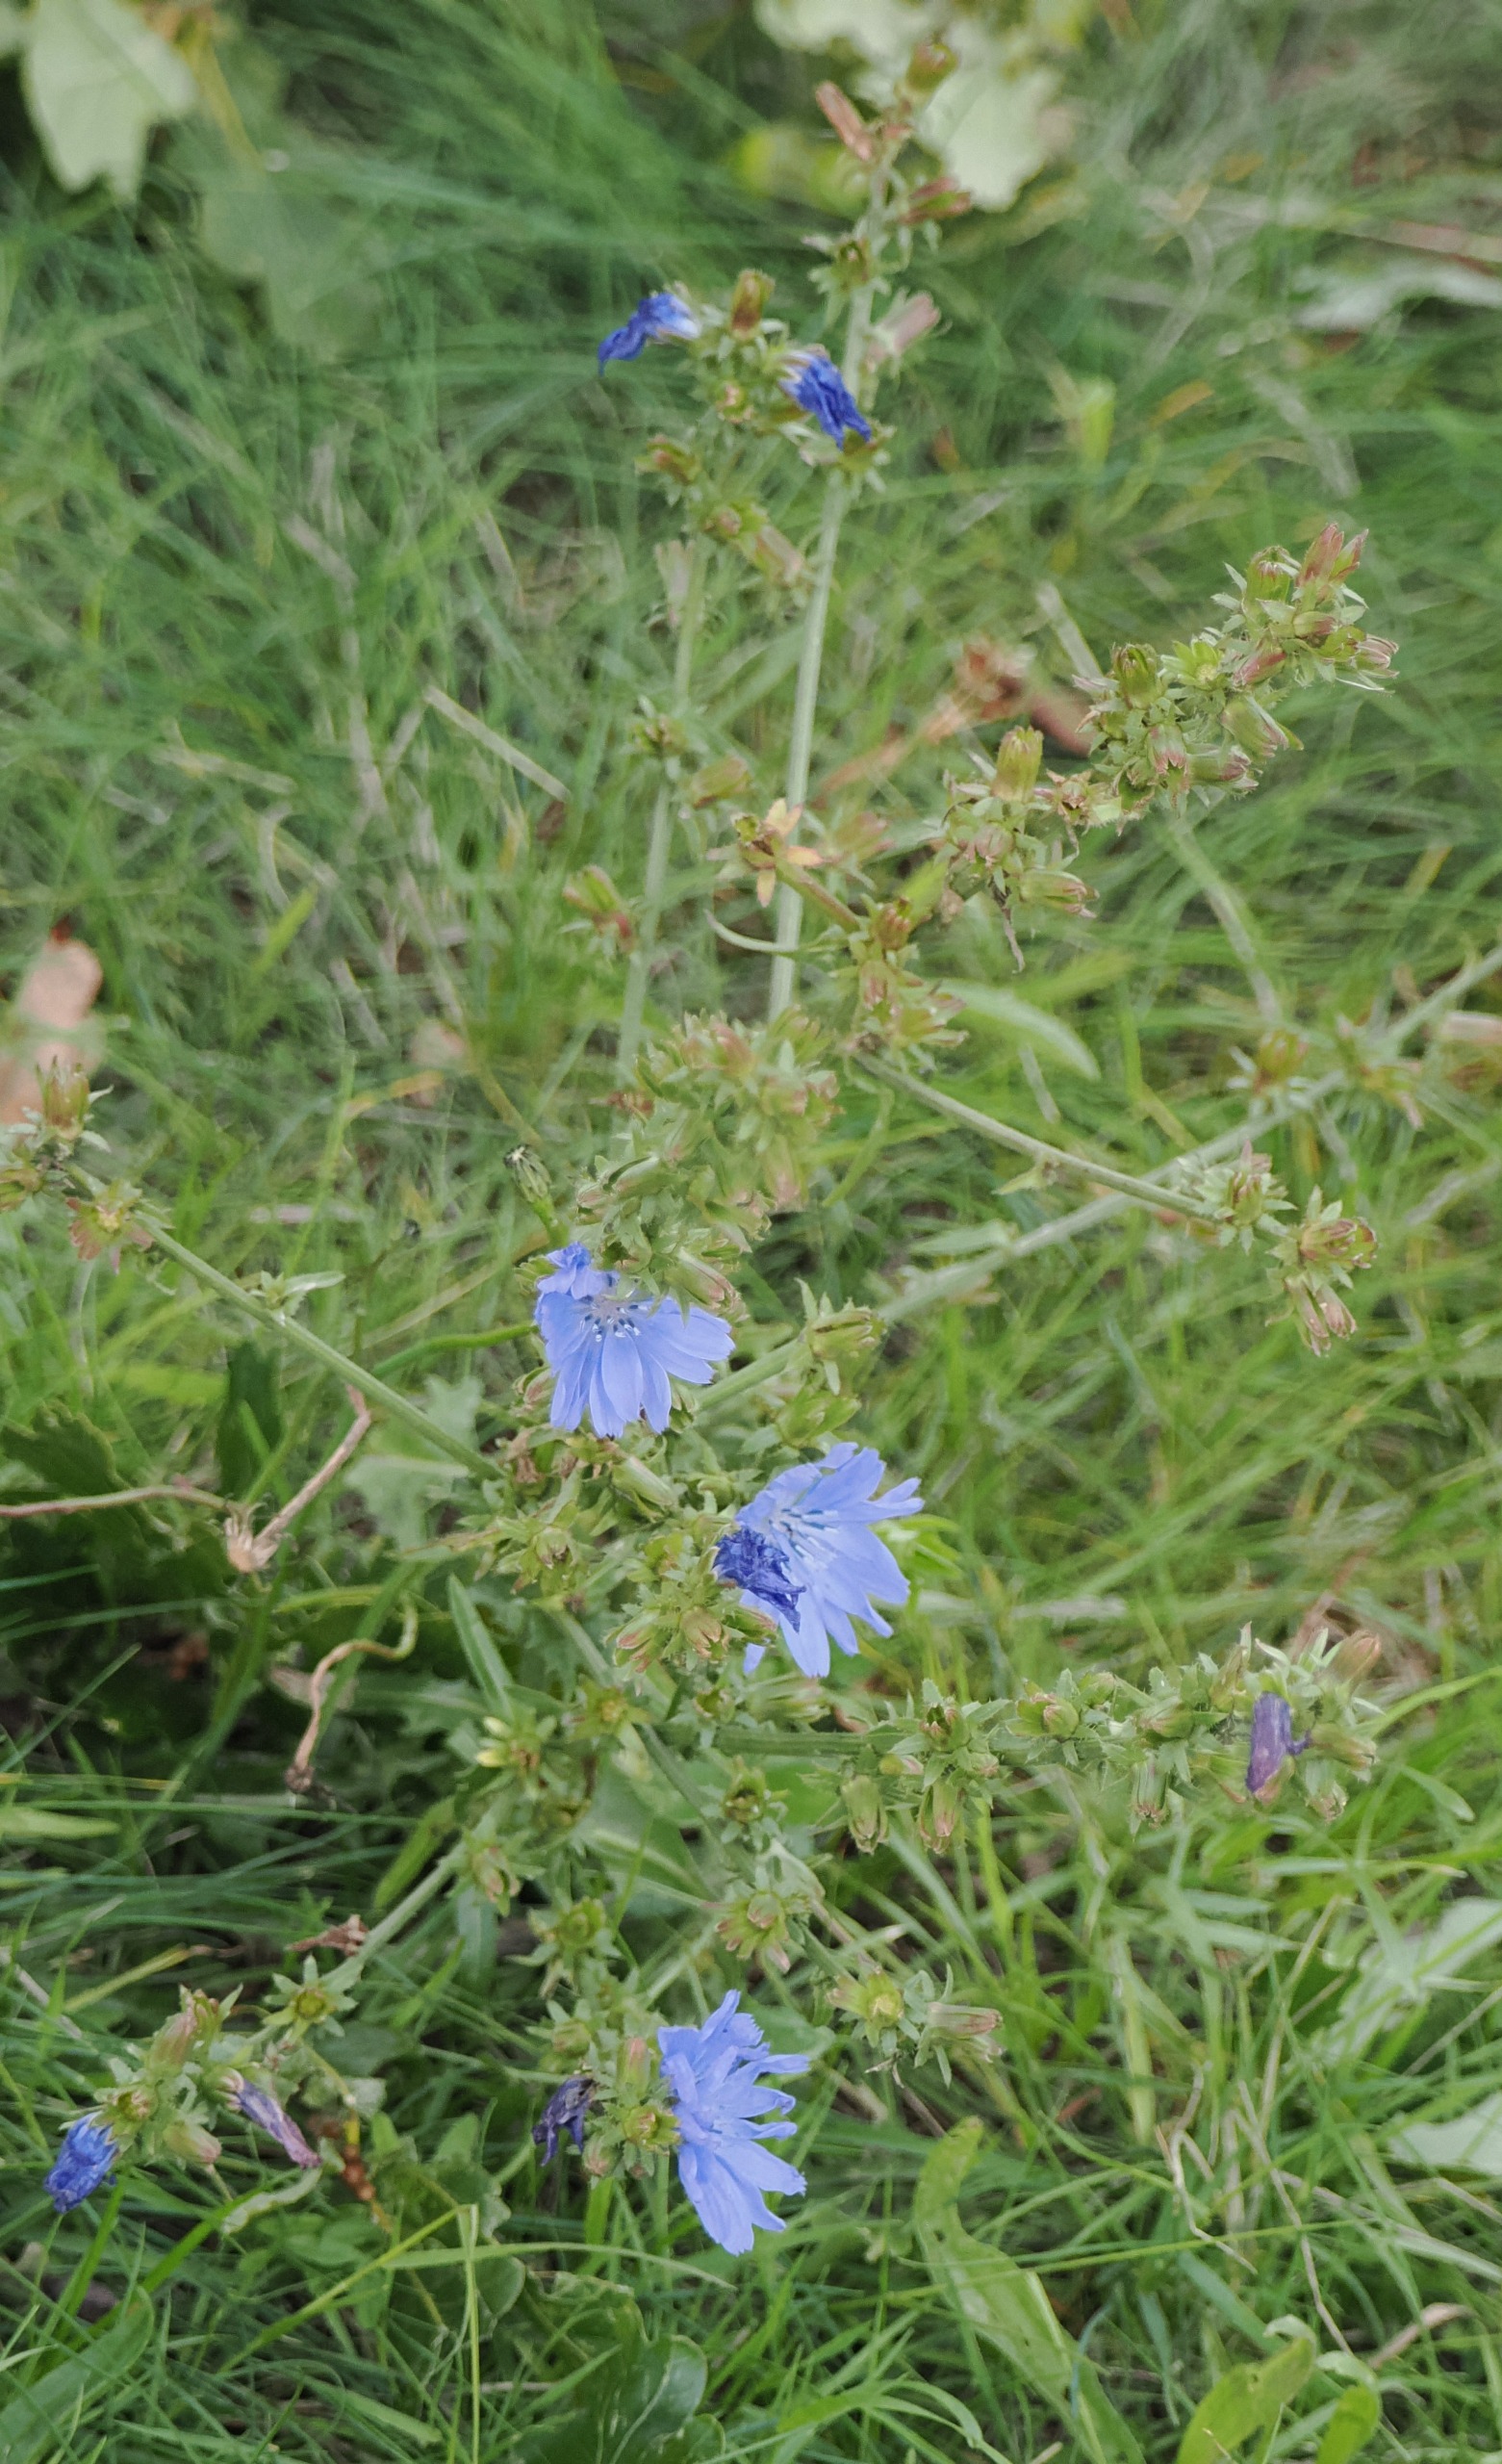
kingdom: Plantae
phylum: Tracheophyta
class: Magnoliopsida
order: Asterales
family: Asteraceae
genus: Cichorium
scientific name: Cichorium intybus
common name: Cikorie
